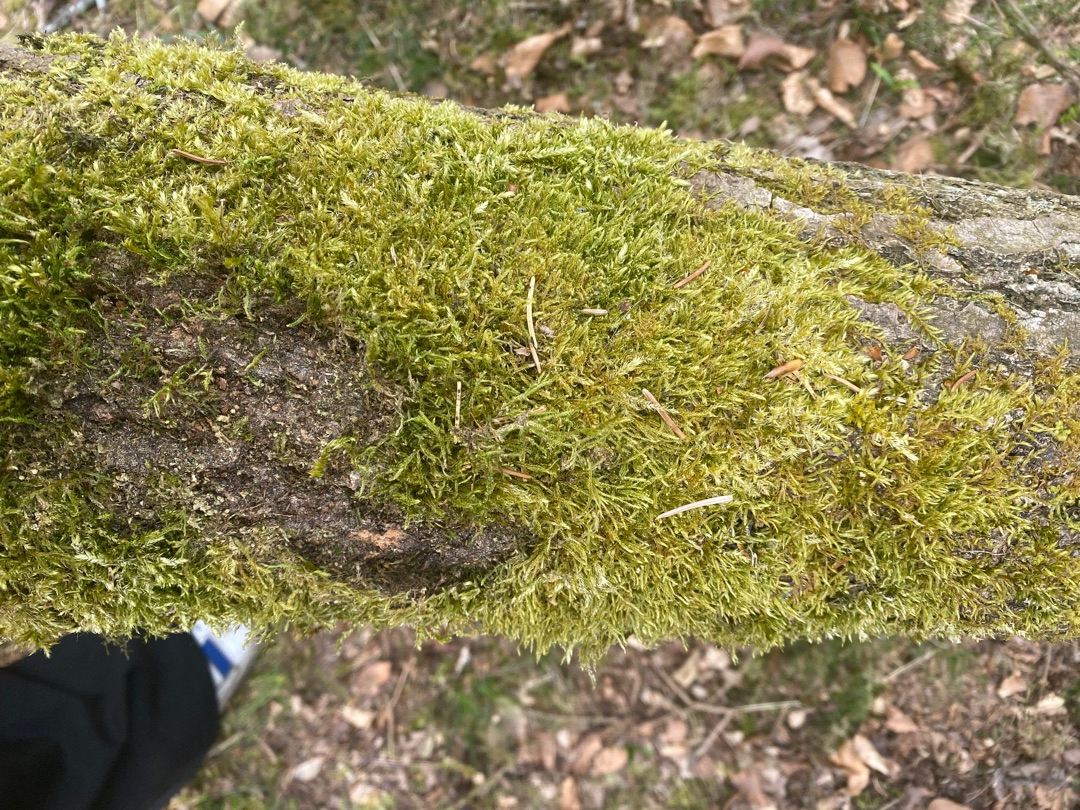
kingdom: Plantae
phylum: Bryophyta
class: Bryopsida
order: Hypnales
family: Hypnaceae
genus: Hypnum
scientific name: Hypnum cupressiforme
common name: Almindelig cypresmos
